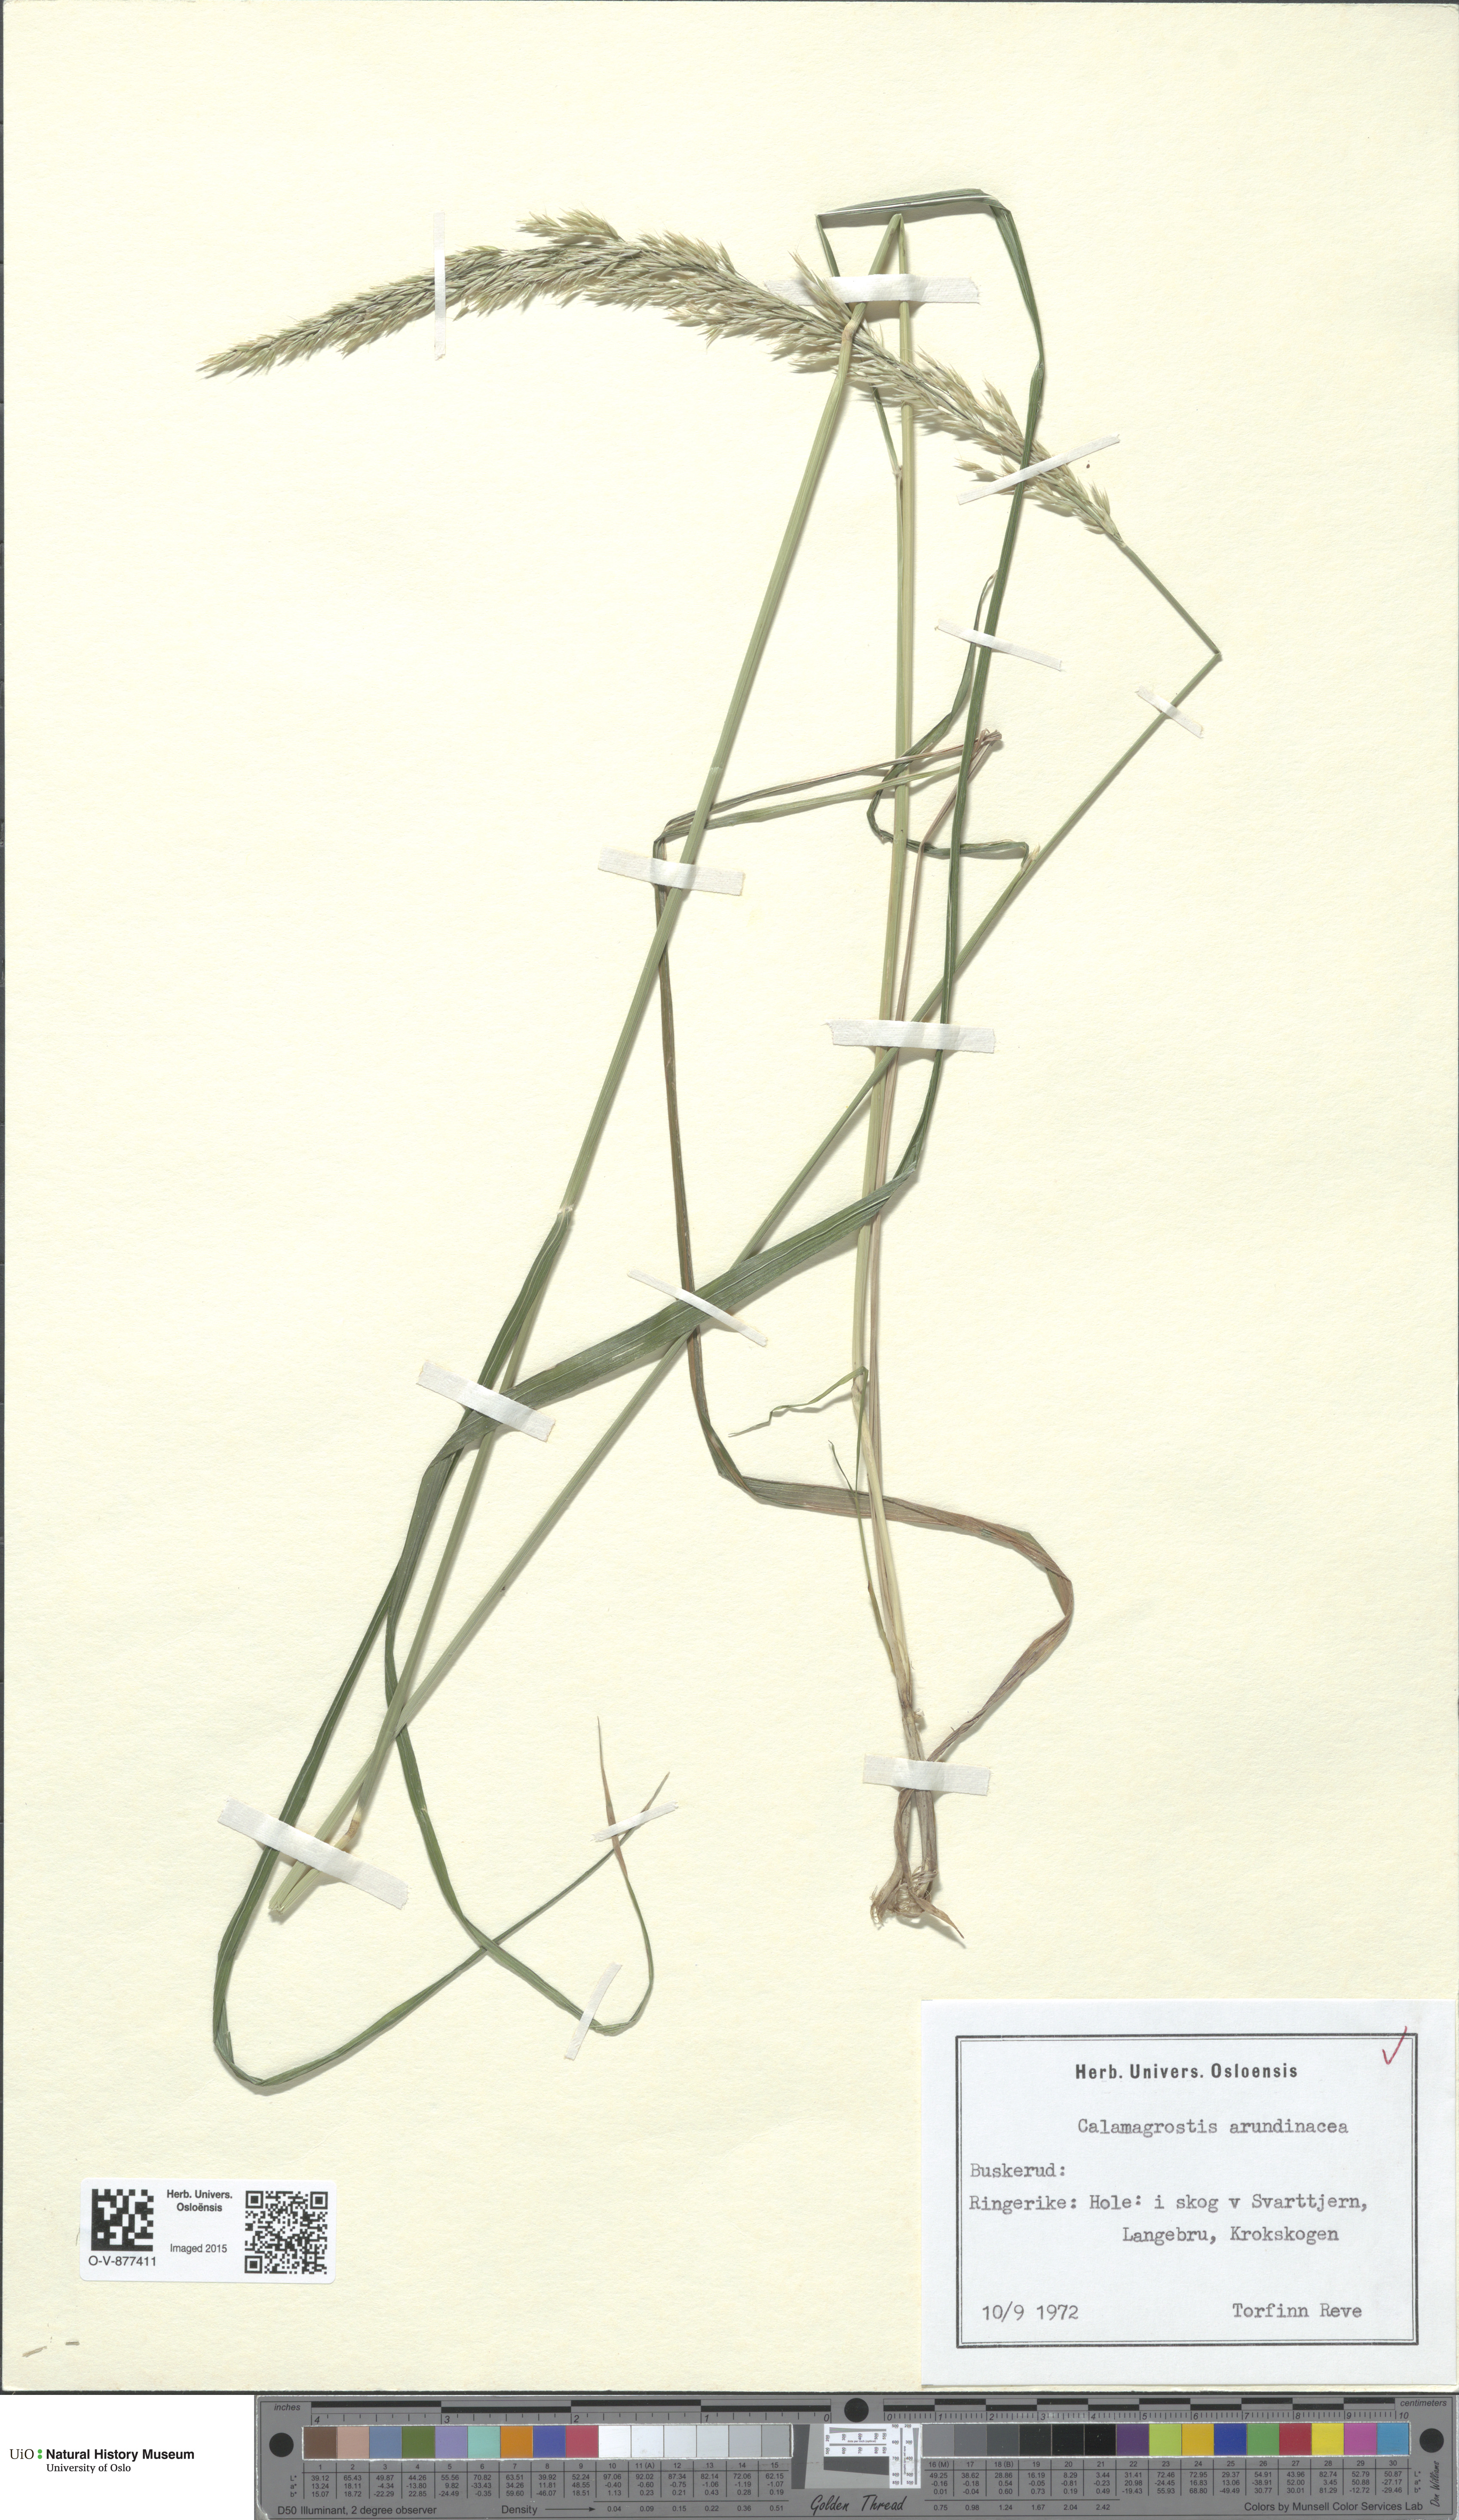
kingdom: Plantae
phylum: Tracheophyta
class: Liliopsida
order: Poales
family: Poaceae
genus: Calamagrostis
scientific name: Calamagrostis arundinacea
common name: Metskastik
